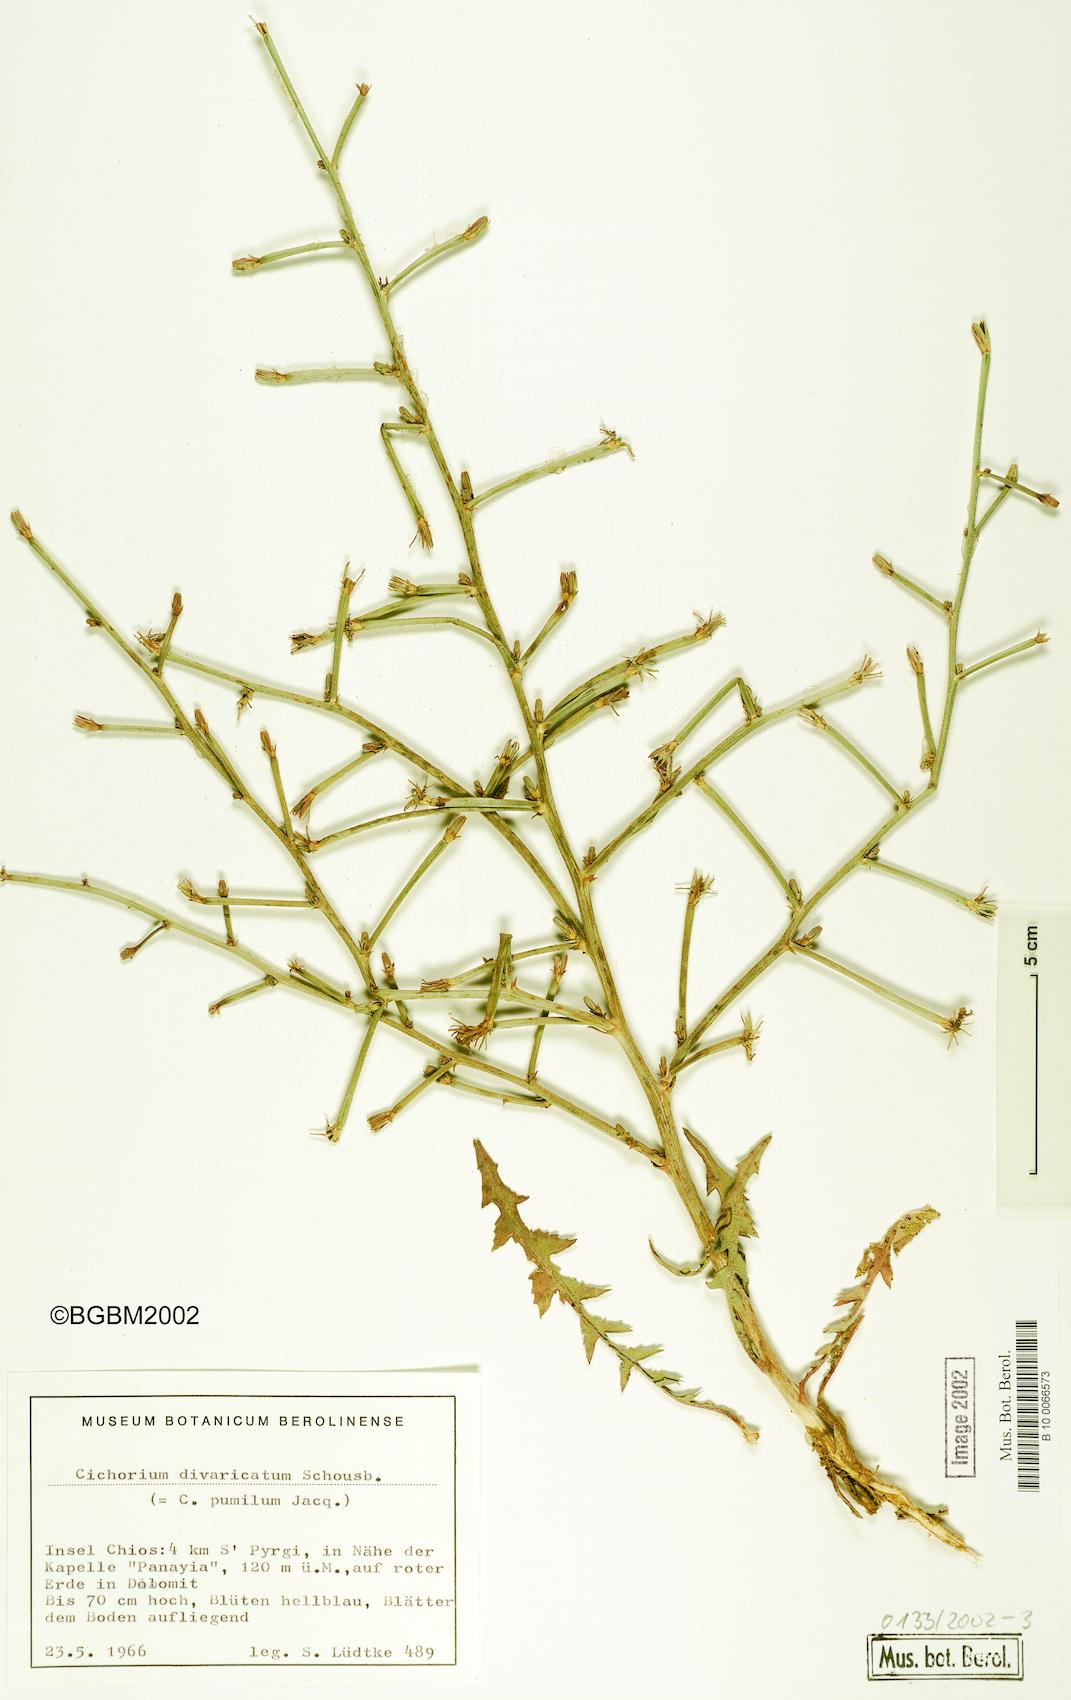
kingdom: Plantae
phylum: Tracheophyta
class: Magnoliopsida
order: Asterales
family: Asteraceae
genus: Cichorium
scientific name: Cichorium pumilum
